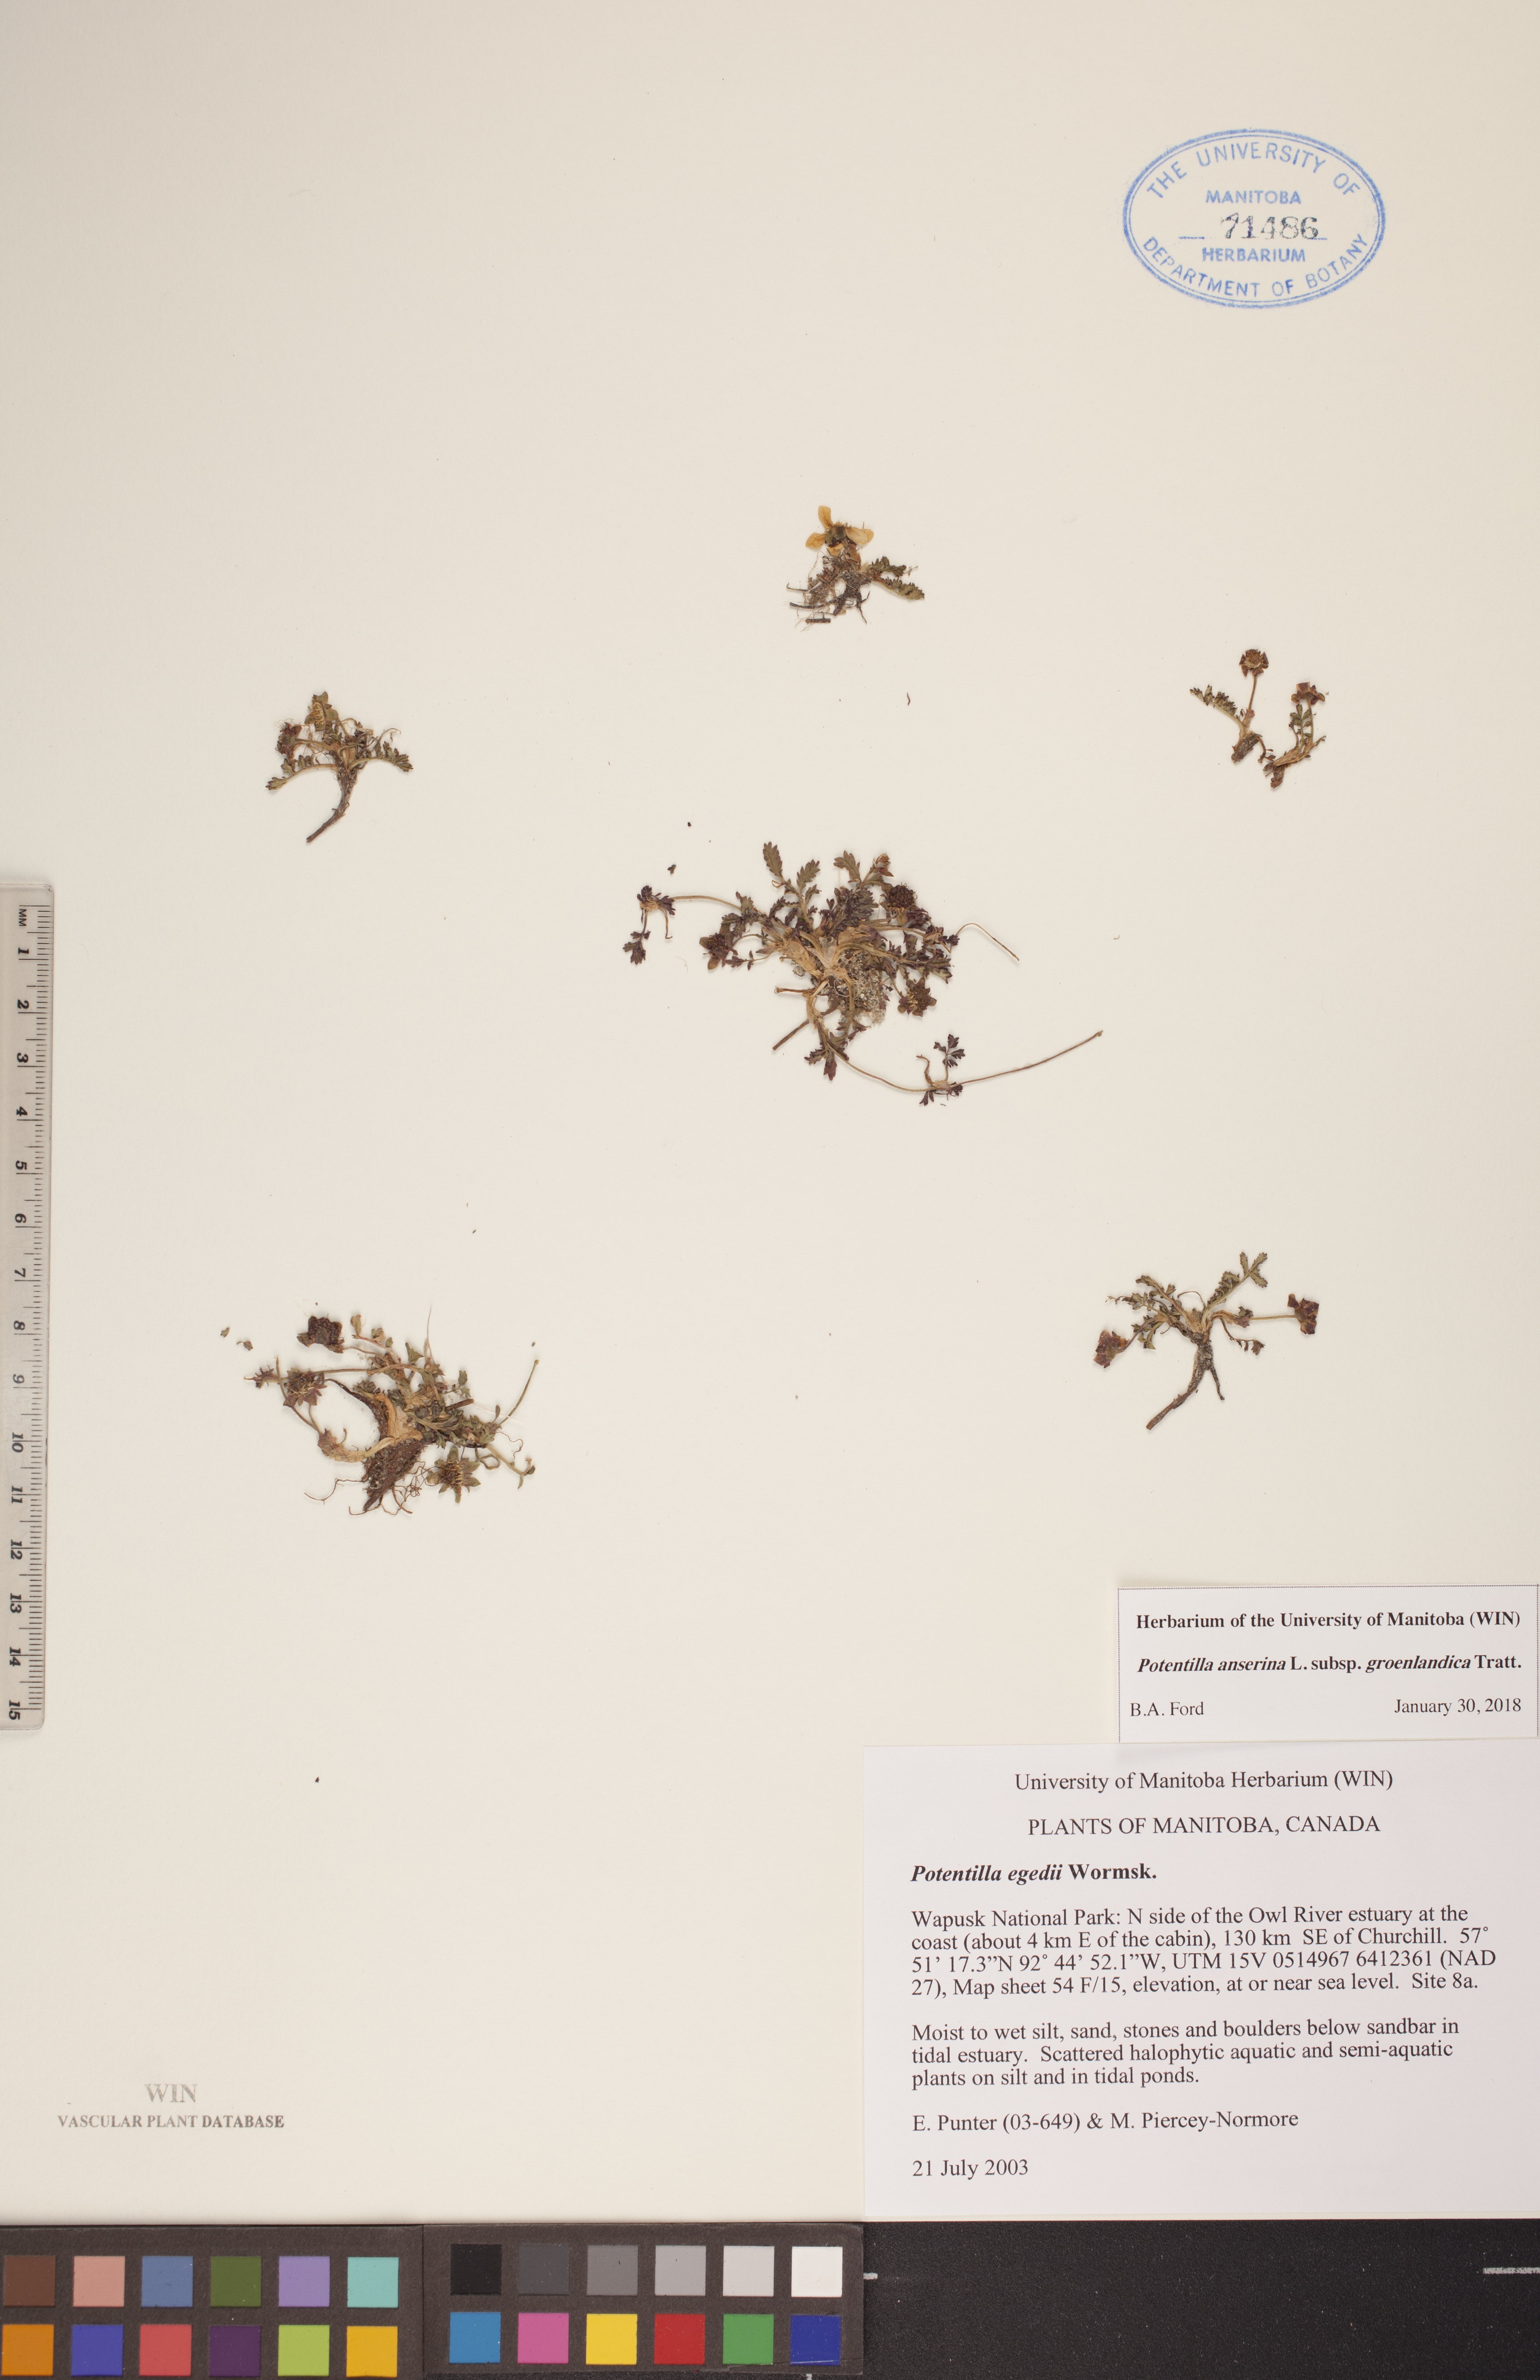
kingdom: Plantae
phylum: Tracheophyta
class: Magnoliopsida
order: Rosales
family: Rosaceae
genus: Argentina
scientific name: Argentina anserina
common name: Common silverweed
